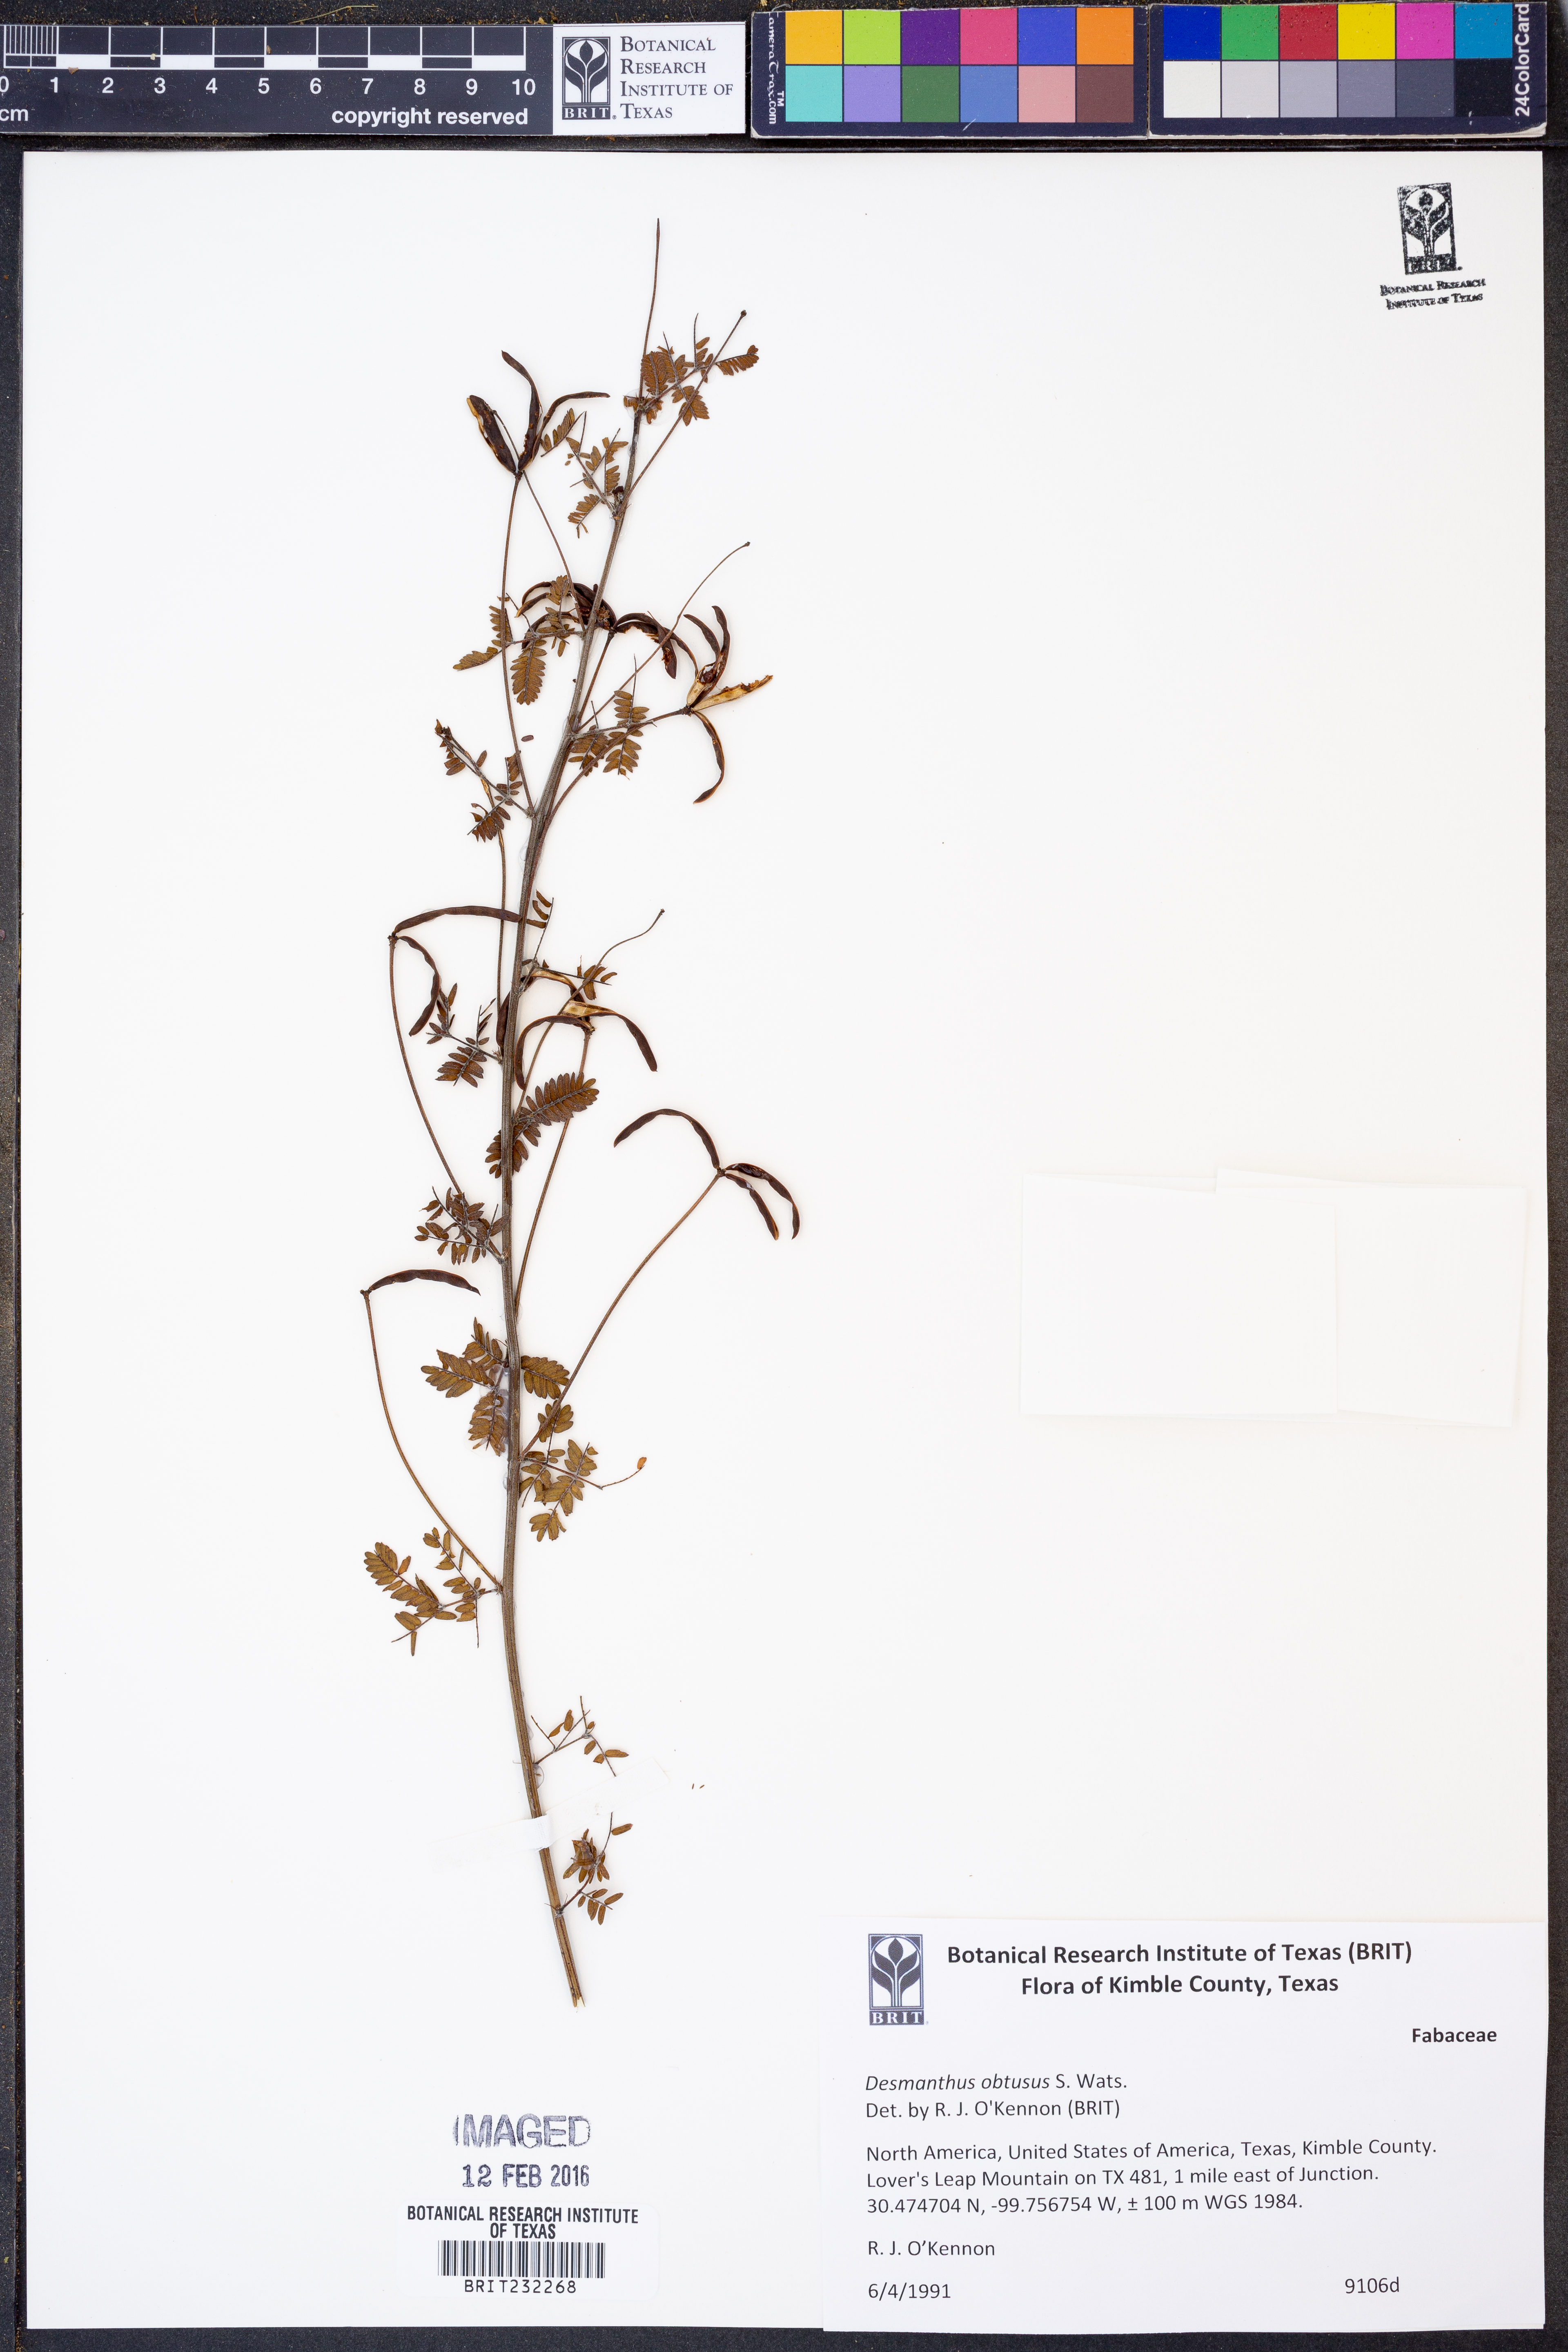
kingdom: Plantae
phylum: Tracheophyta
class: Magnoliopsida
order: Fabales
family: Fabaceae
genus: Desmanthus
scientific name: Desmanthus obtusus
